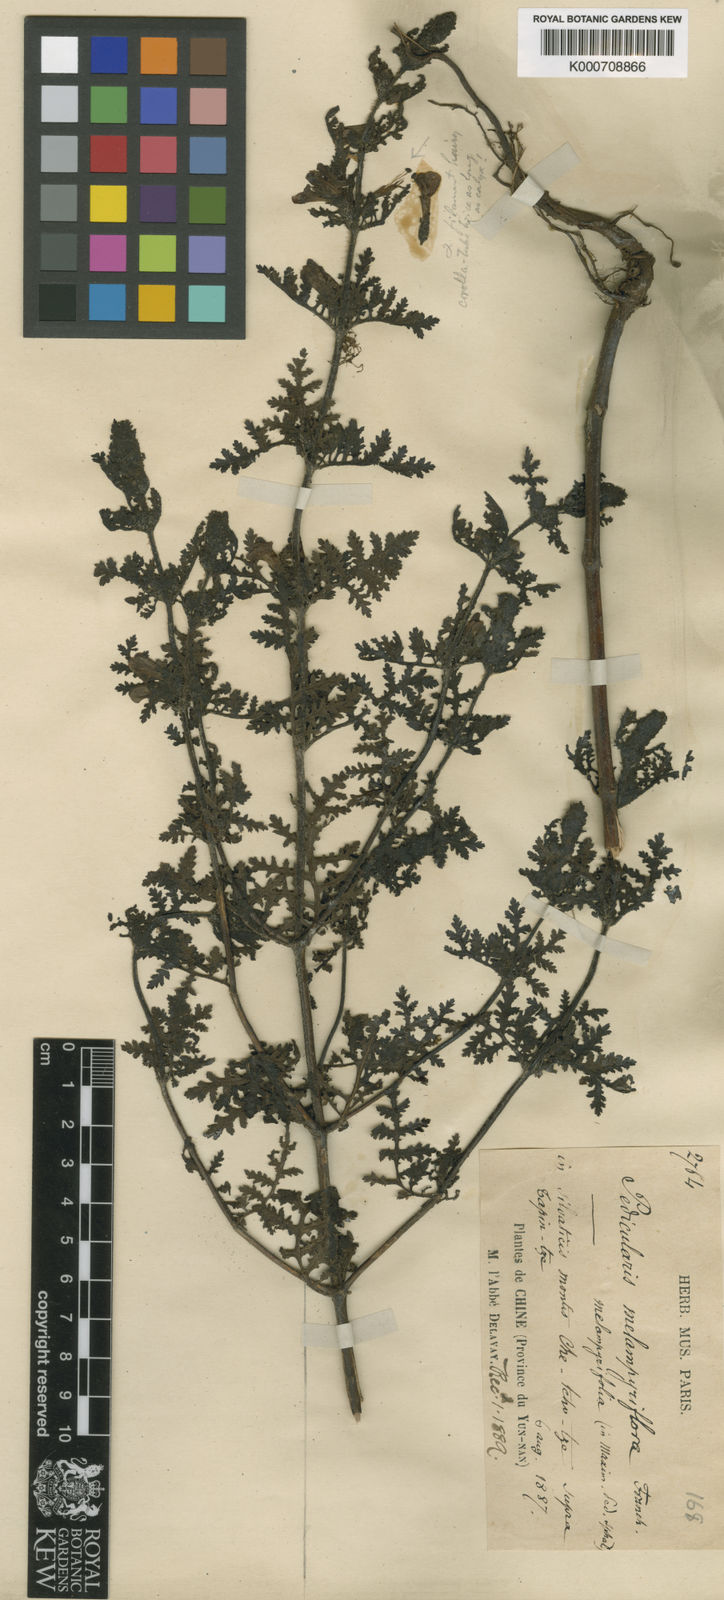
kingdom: Plantae
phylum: Tracheophyta
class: Magnoliopsida
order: Lamiales
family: Orobanchaceae
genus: Pedicularis
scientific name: Pedicularis
